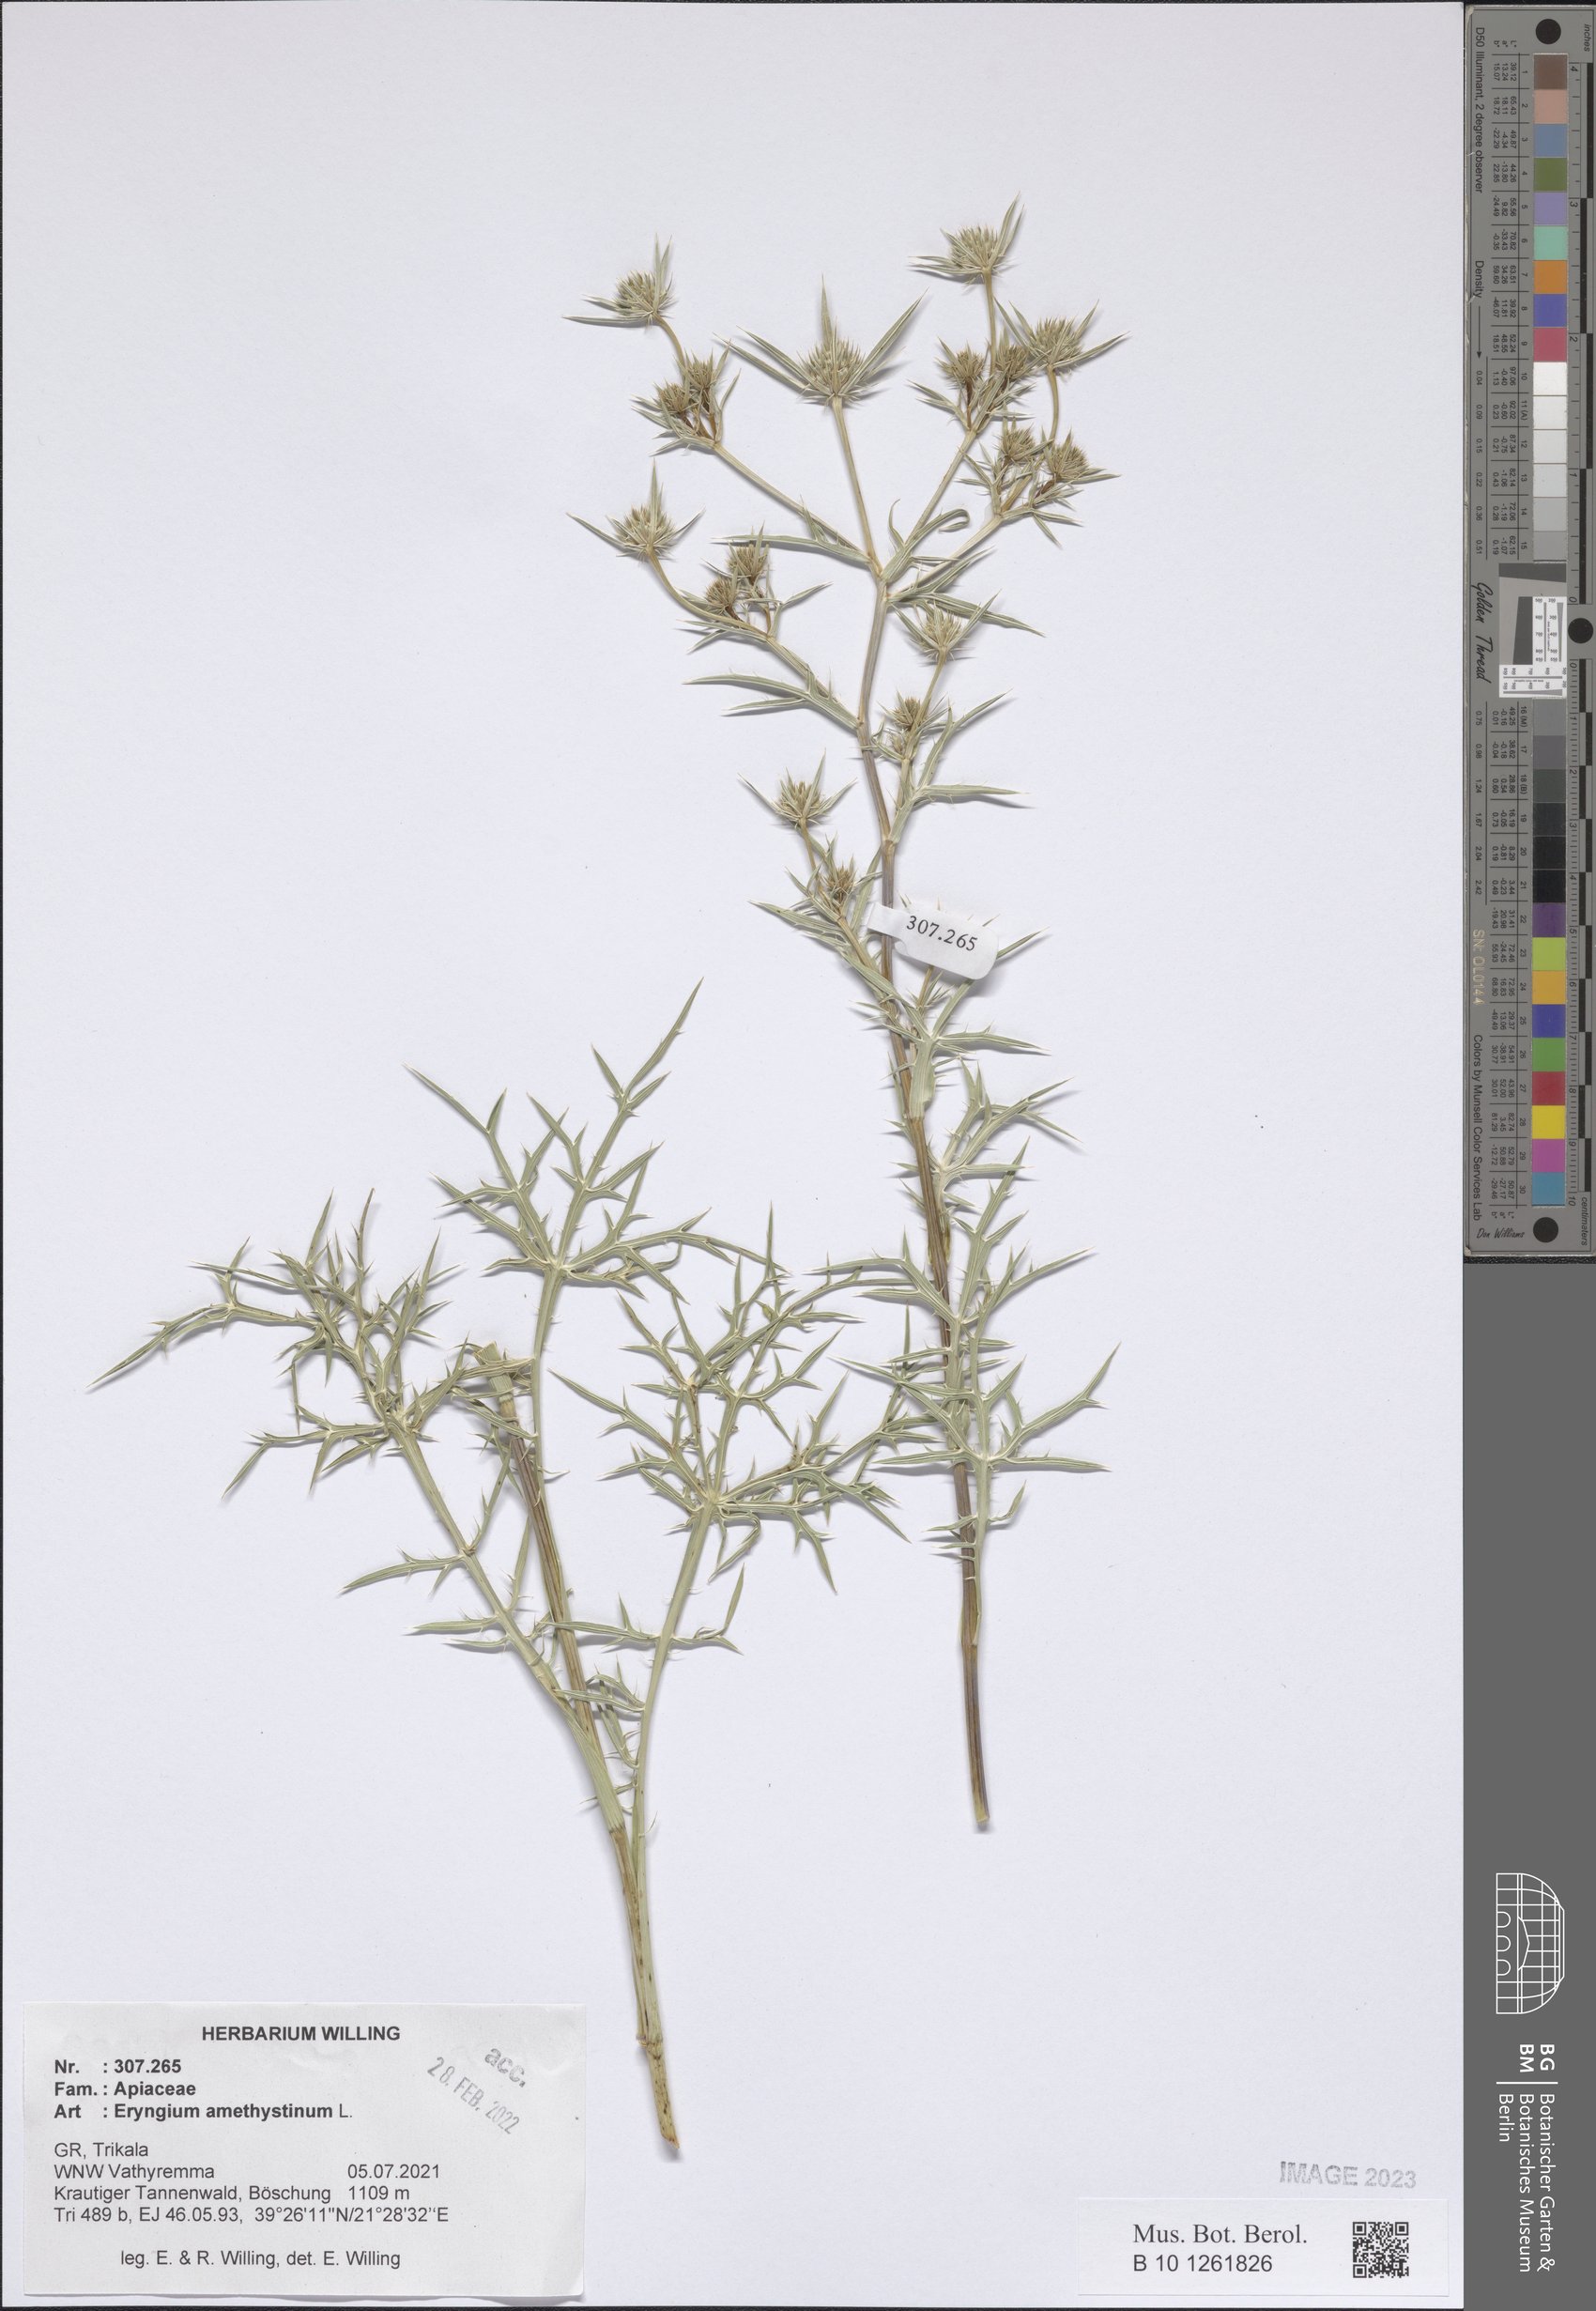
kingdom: Plantae
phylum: Tracheophyta
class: Magnoliopsida
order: Apiales
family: Apiaceae
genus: Eryngium
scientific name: Eryngium amethystinum
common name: Amethyst eryngo
